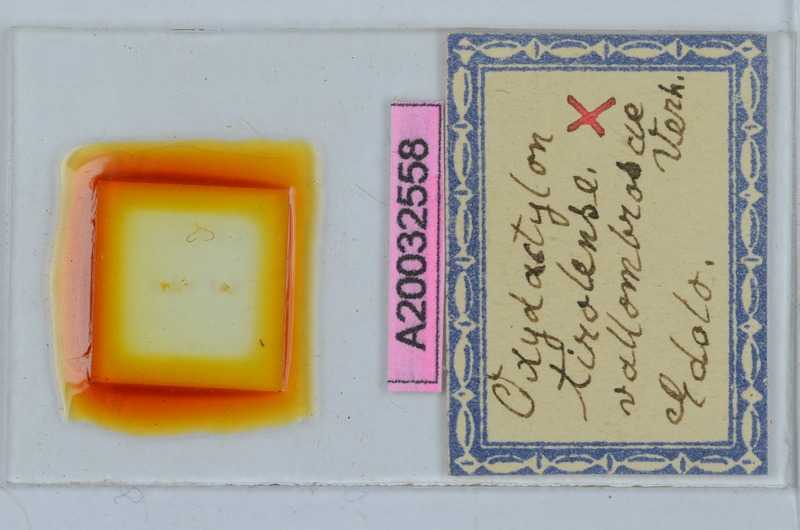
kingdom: Animalia
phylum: Arthropoda
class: Diplopoda
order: Chordeumatida
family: Craspedosomatidae
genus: Iulogona
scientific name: Iulogona tirolensis
